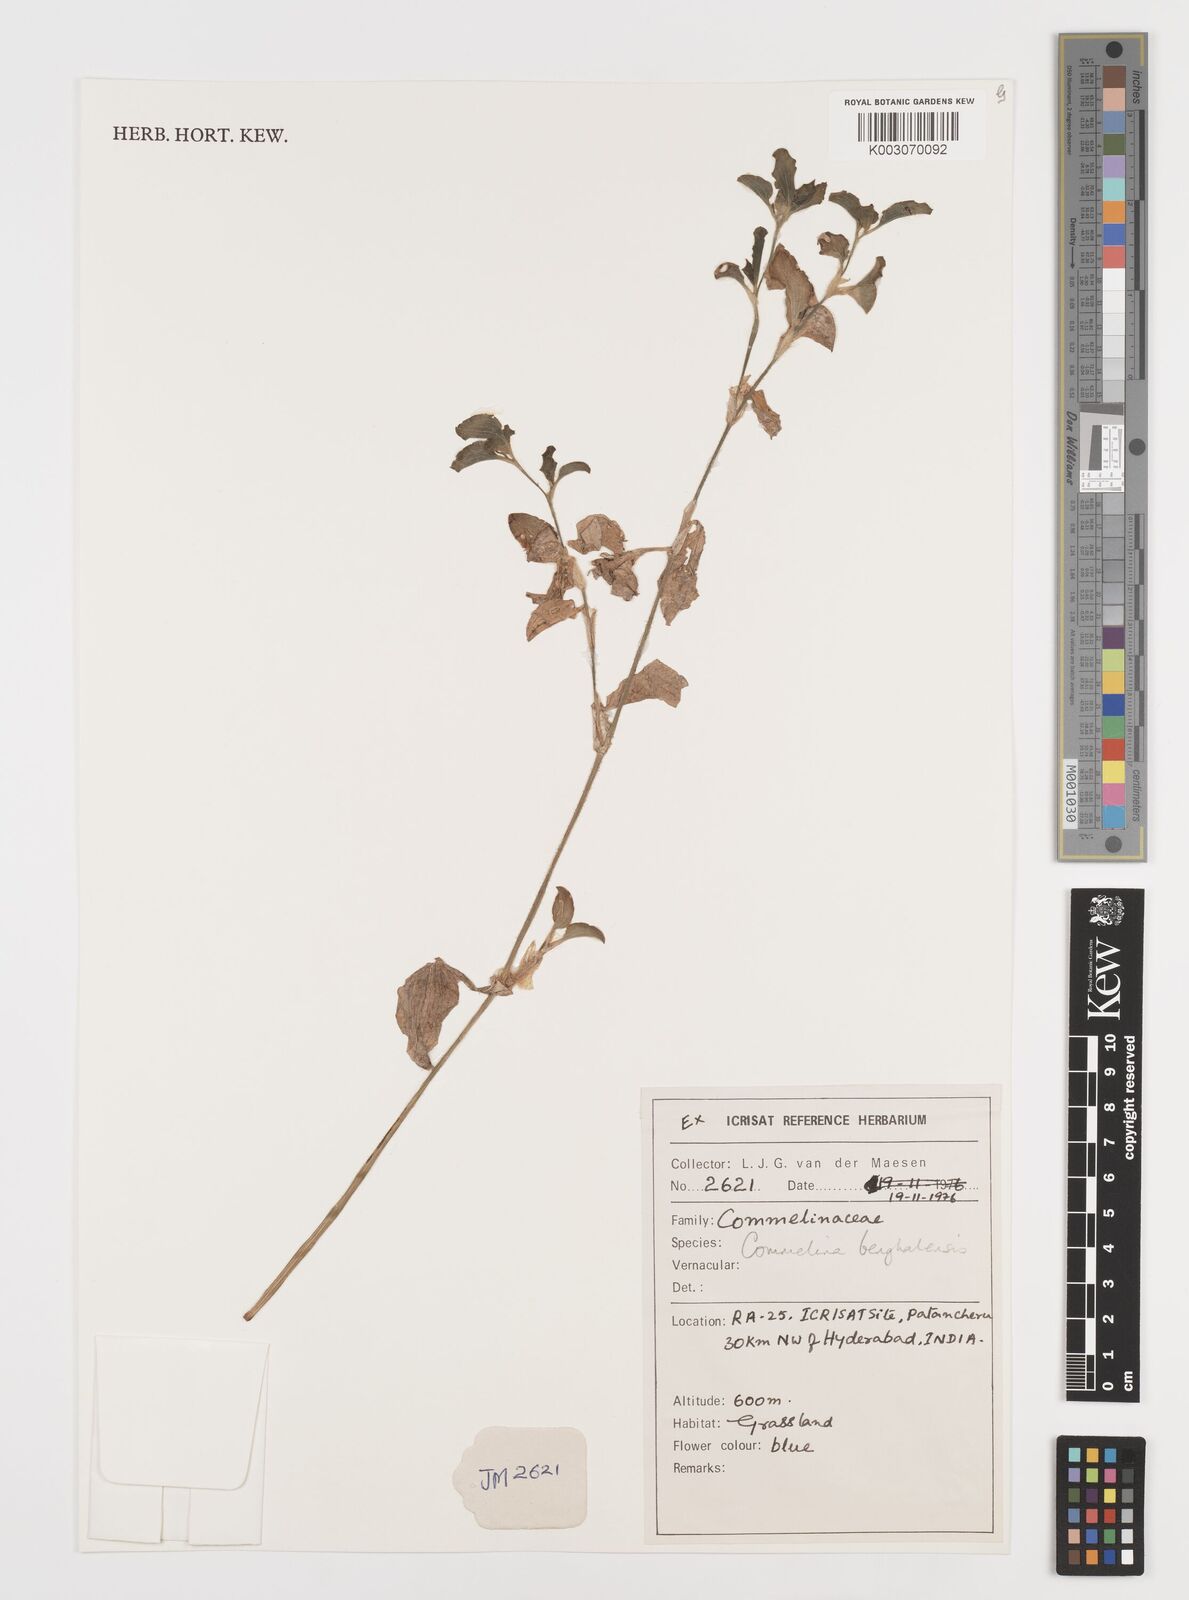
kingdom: Plantae
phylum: Tracheophyta
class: Liliopsida
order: Commelinales
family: Commelinaceae
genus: Commelina
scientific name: Commelina benghalensis
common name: Jio
